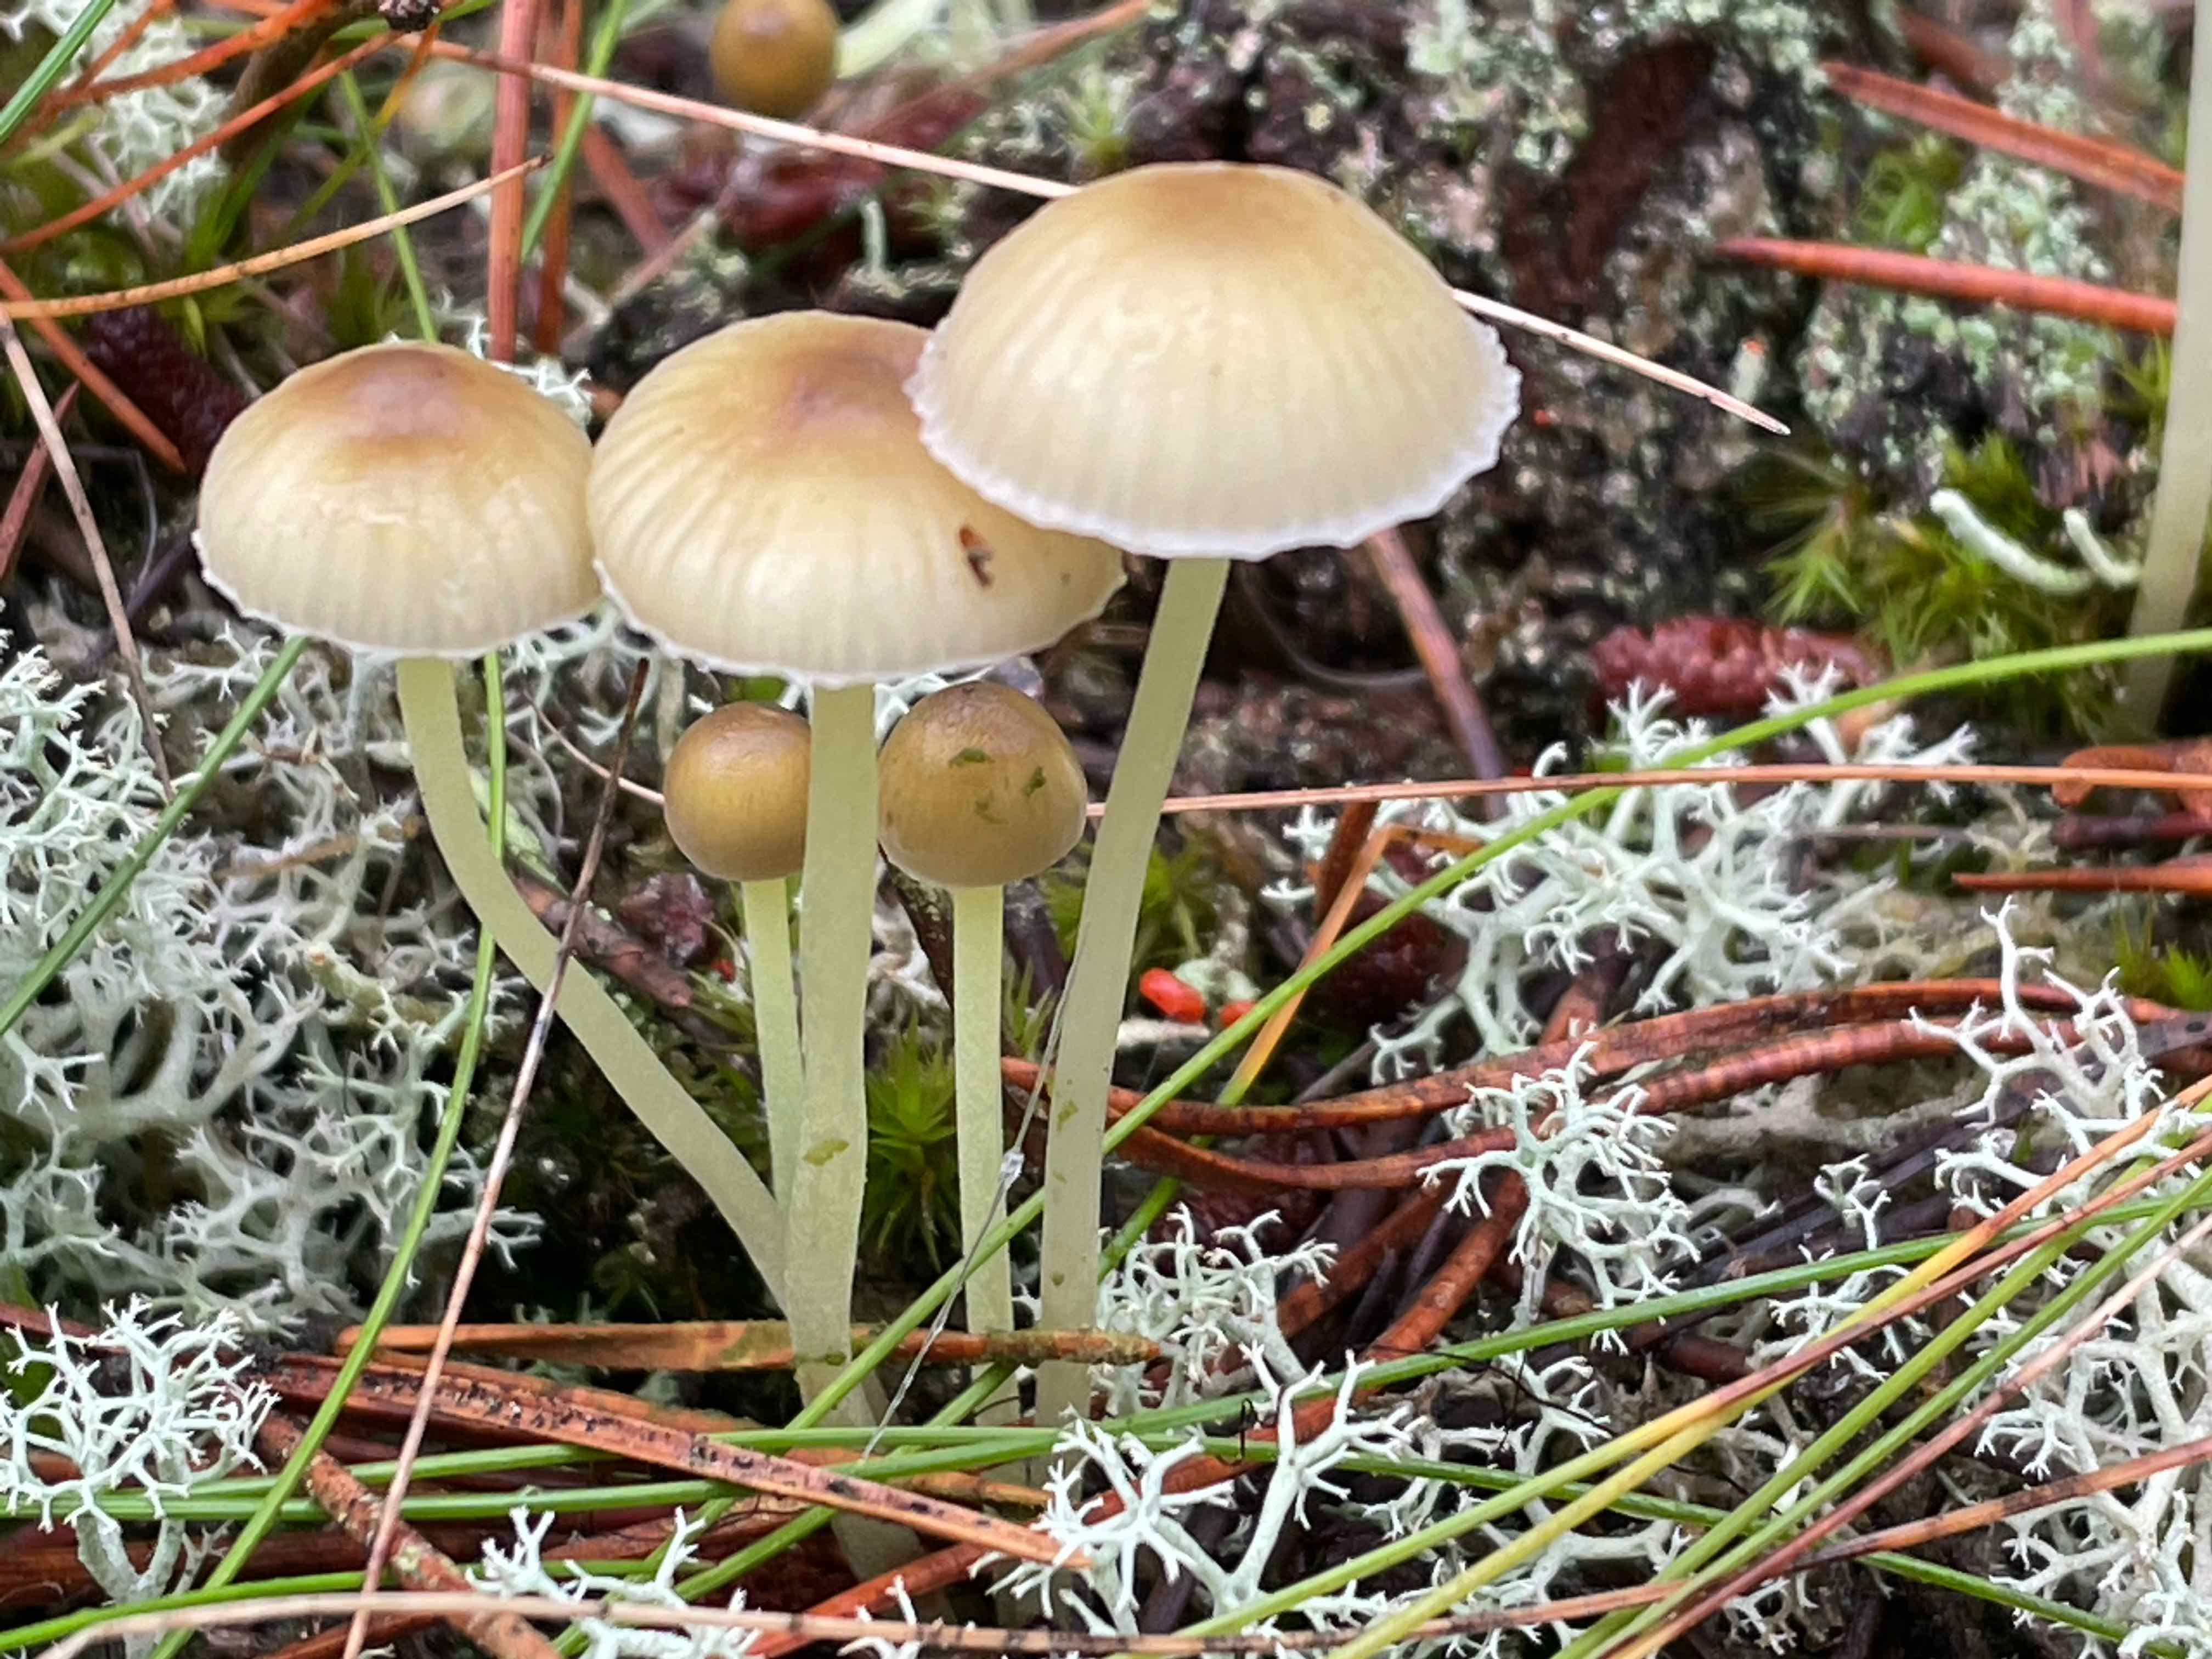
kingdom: Fungi
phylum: Basidiomycota
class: Agaricomycetes
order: Agaricales
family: Mycenaceae
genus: Mycena
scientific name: Mycena epipterygia
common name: gulstokket huesvamp
